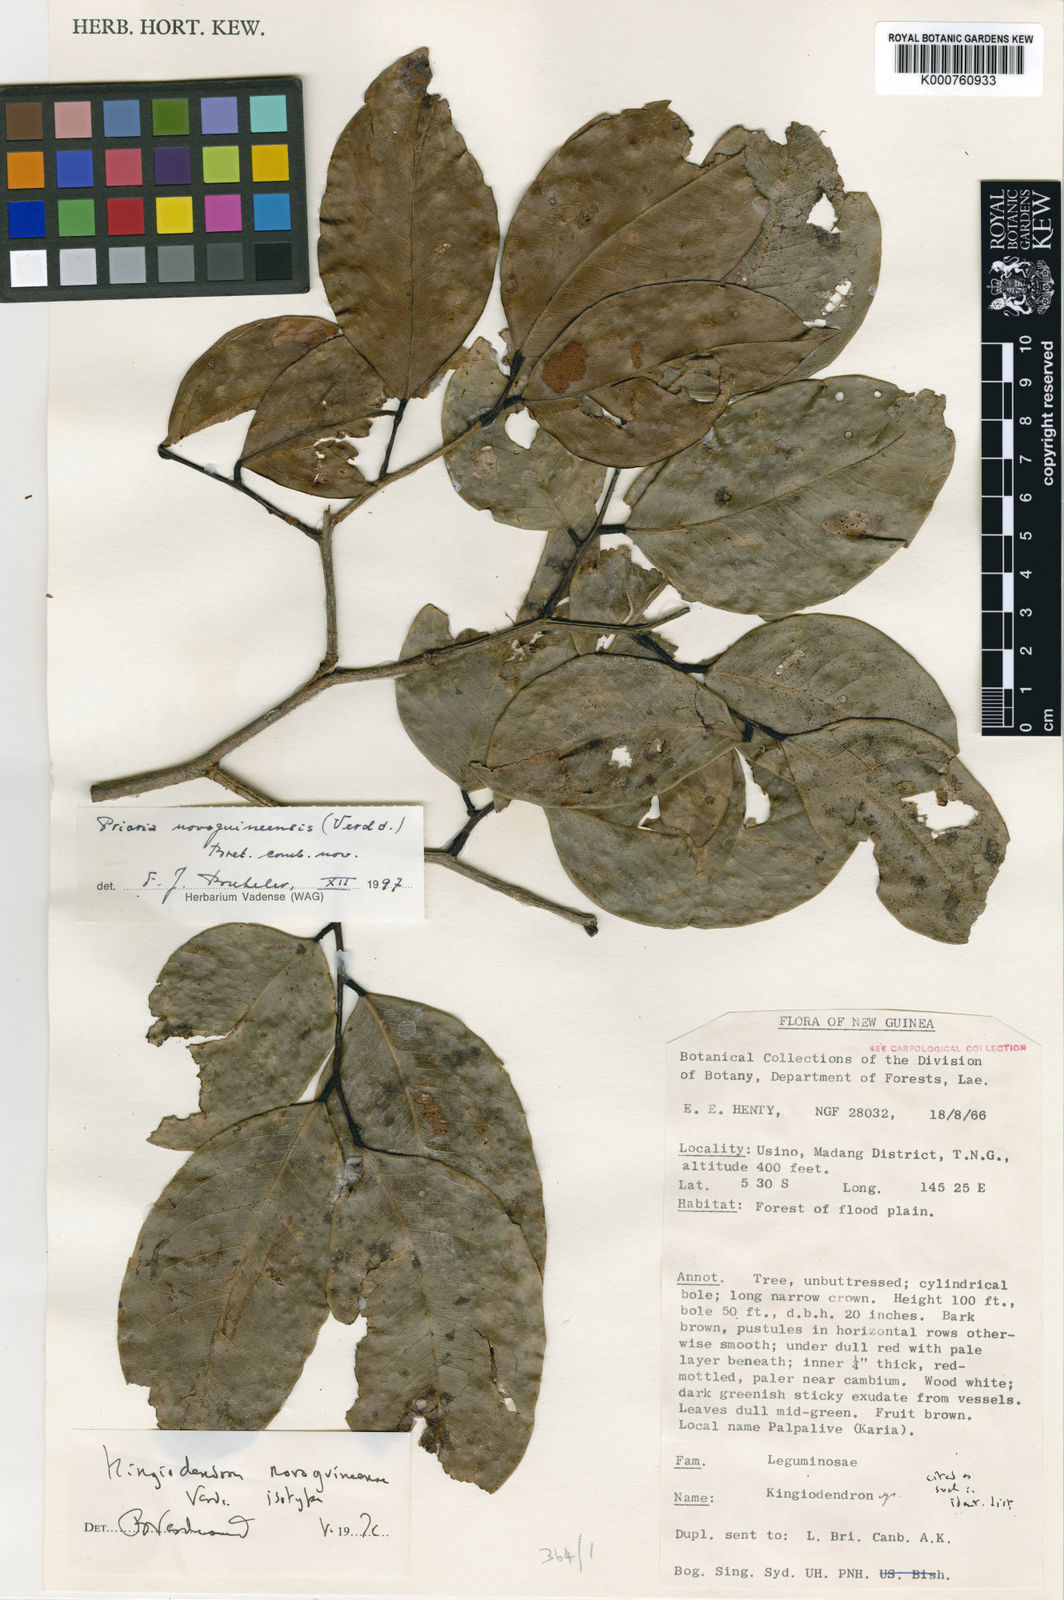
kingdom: Plantae
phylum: Tracheophyta
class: Magnoliopsida
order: Fabales
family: Fabaceae
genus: Prioria
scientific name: Prioria novoguineensis
